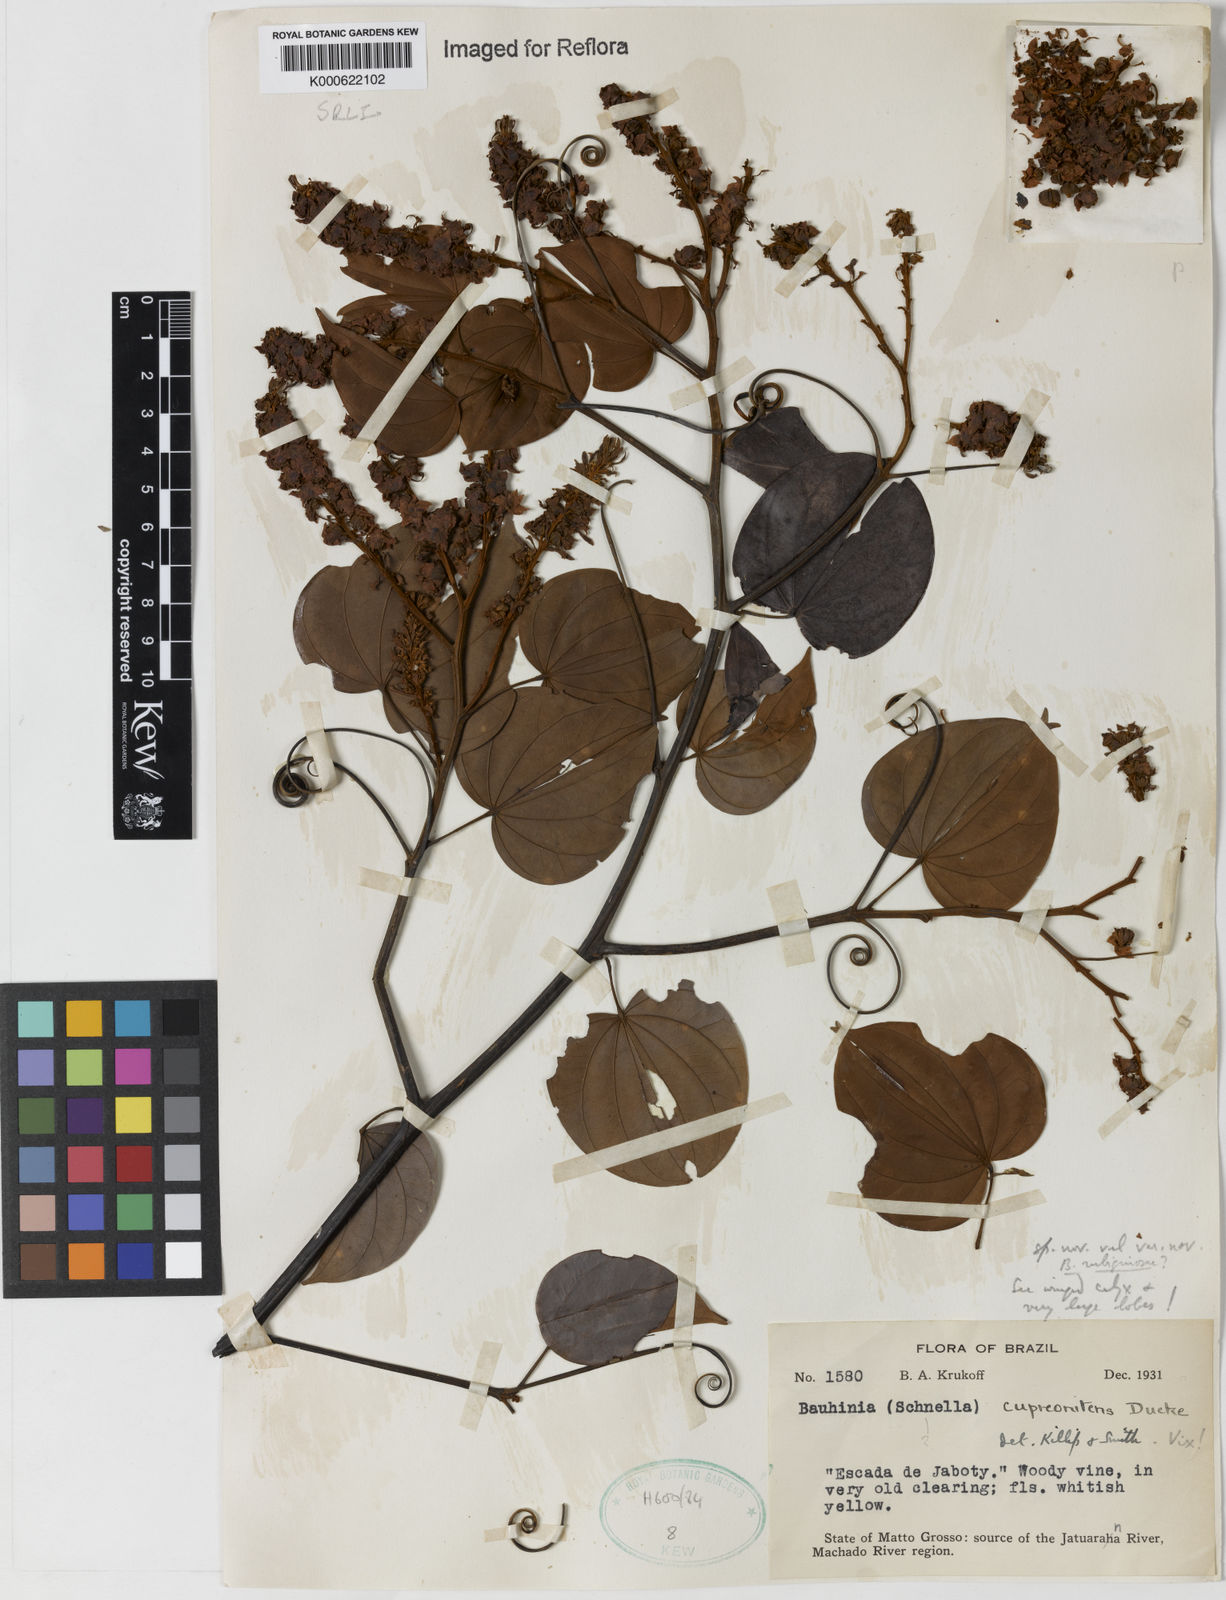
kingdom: Plantae
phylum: Tracheophyta
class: Magnoliopsida
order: Fabales
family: Fabaceae
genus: Schnella
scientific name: Schnella
